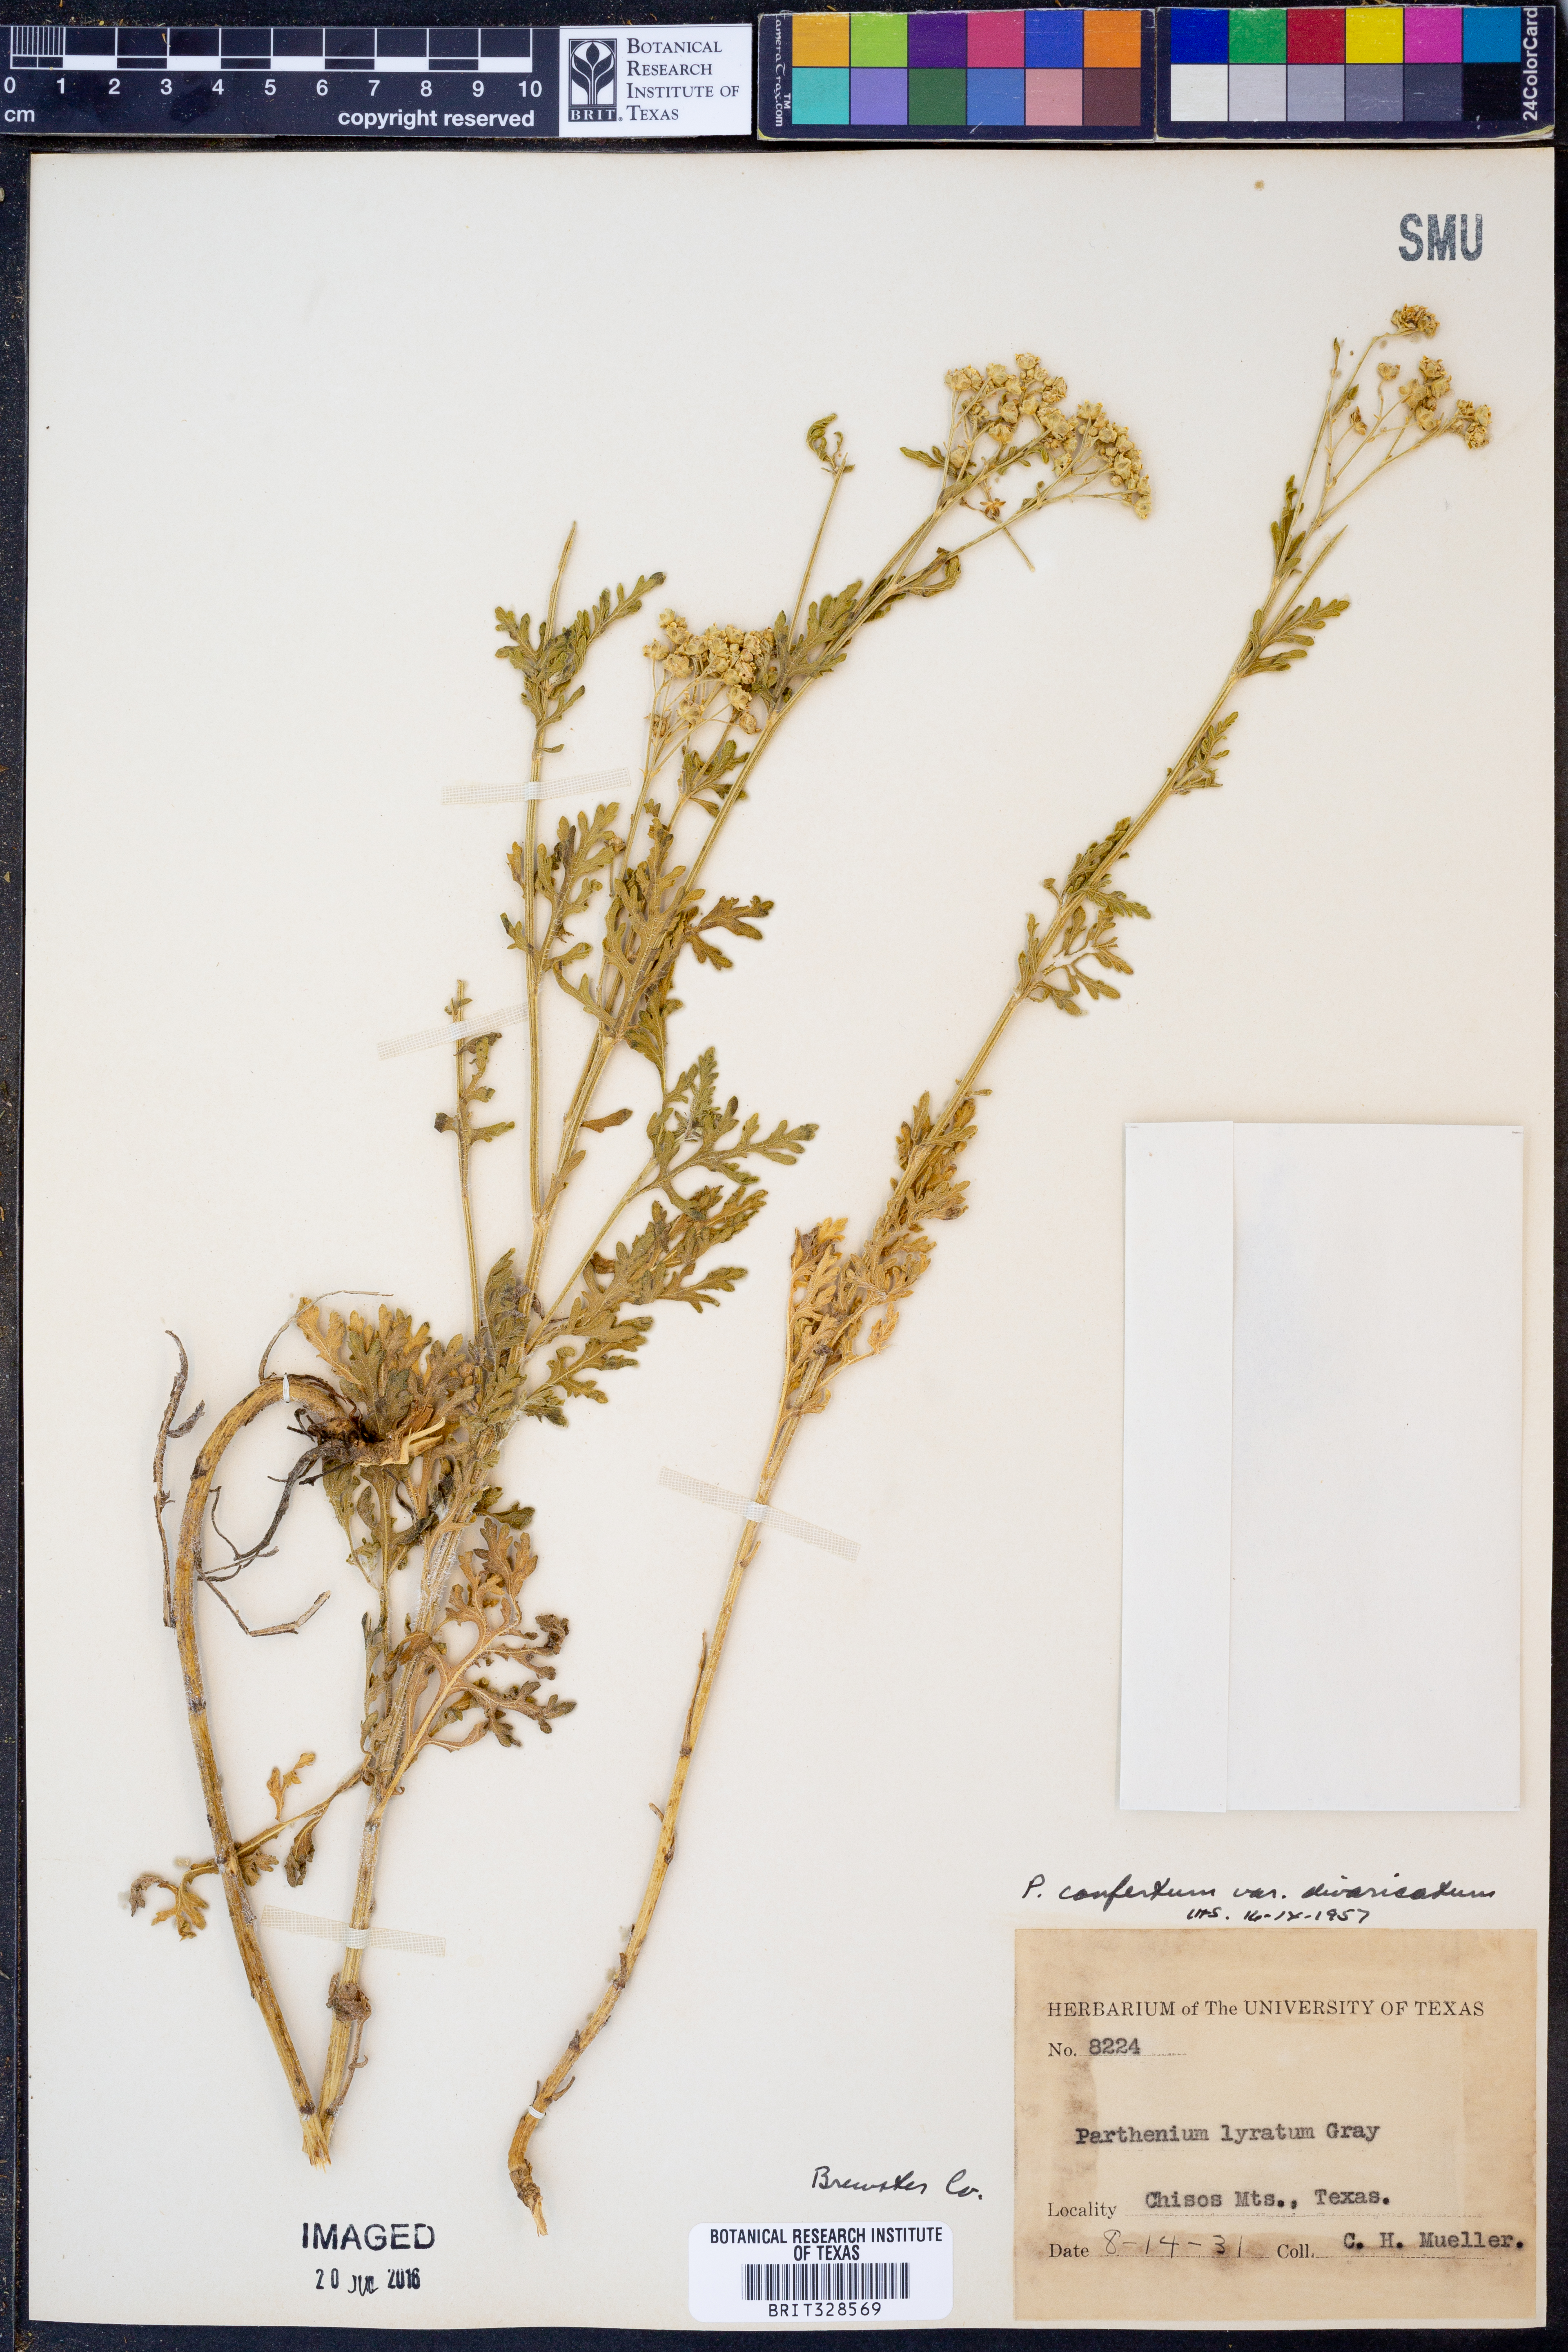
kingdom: Plantae
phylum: Tracheophyta
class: Magnoliopsida
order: Asterales
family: Asteraceae
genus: Parthenium
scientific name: Parthenium confertum
